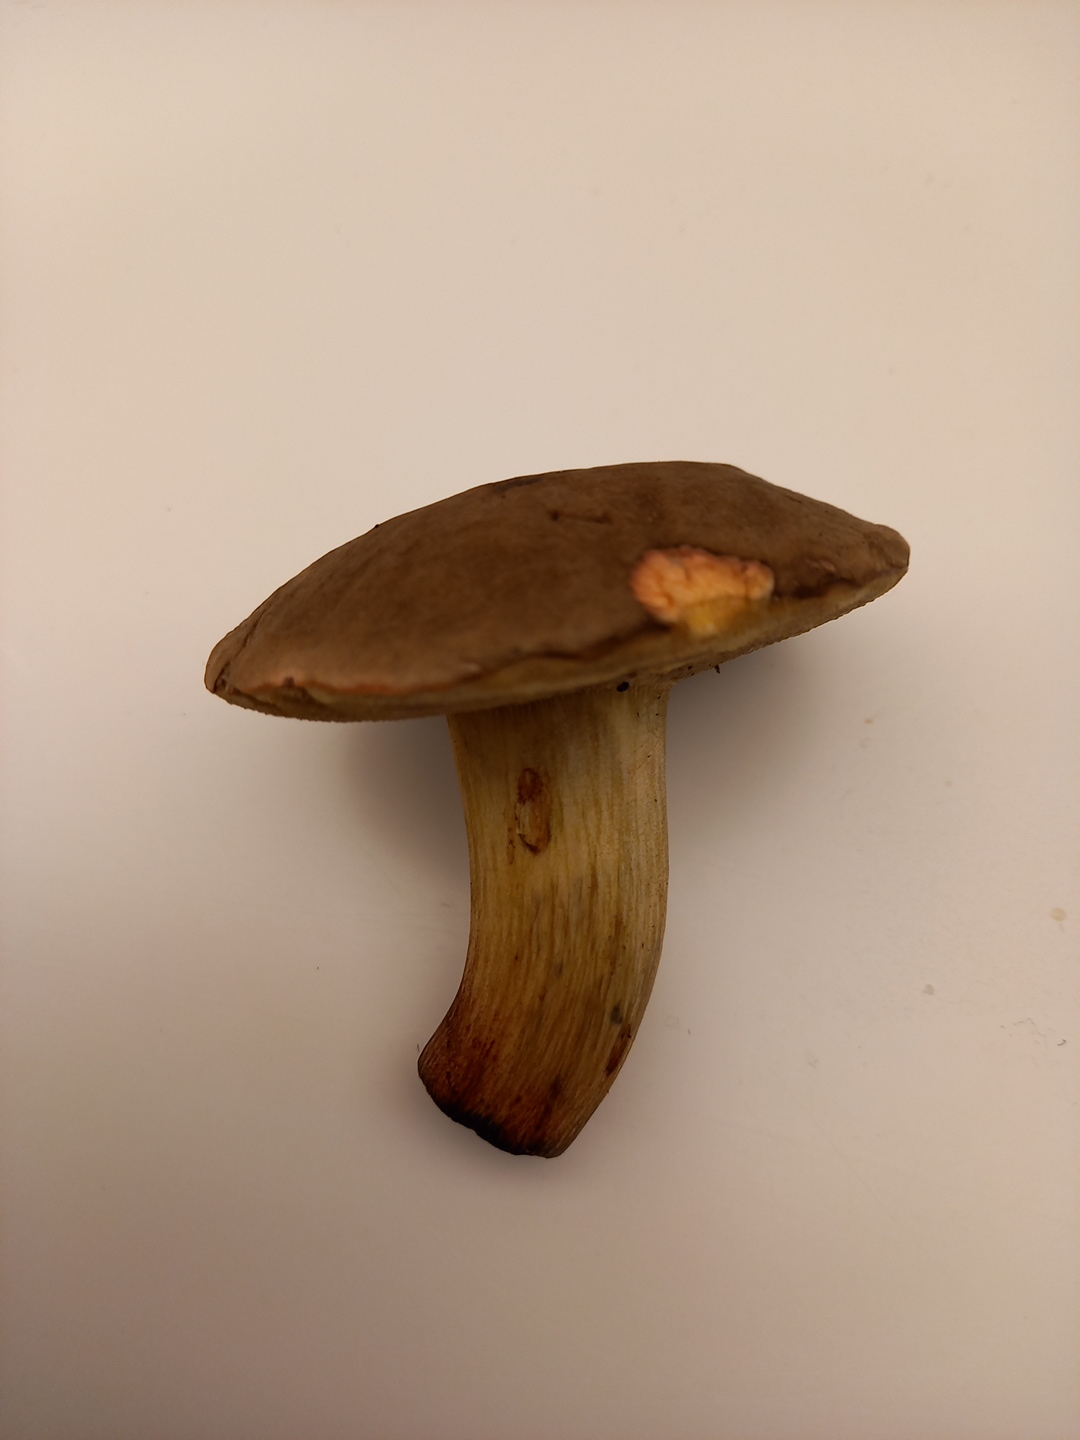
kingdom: Fungi
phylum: Basidiomycota
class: Agaricomycetes
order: Boletales
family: Boletaceae
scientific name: Boletaceae
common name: rørhatfamilien
